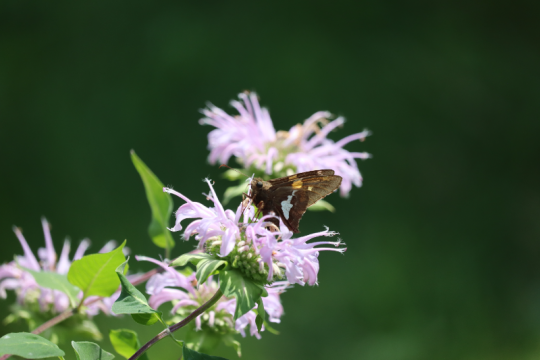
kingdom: Animalia
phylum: Arthropoda
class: Insecta
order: Lepidoptera
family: Hesperiidae
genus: Epargyreus
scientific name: Epargyreus clarus
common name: Silver-spotted Skipper
